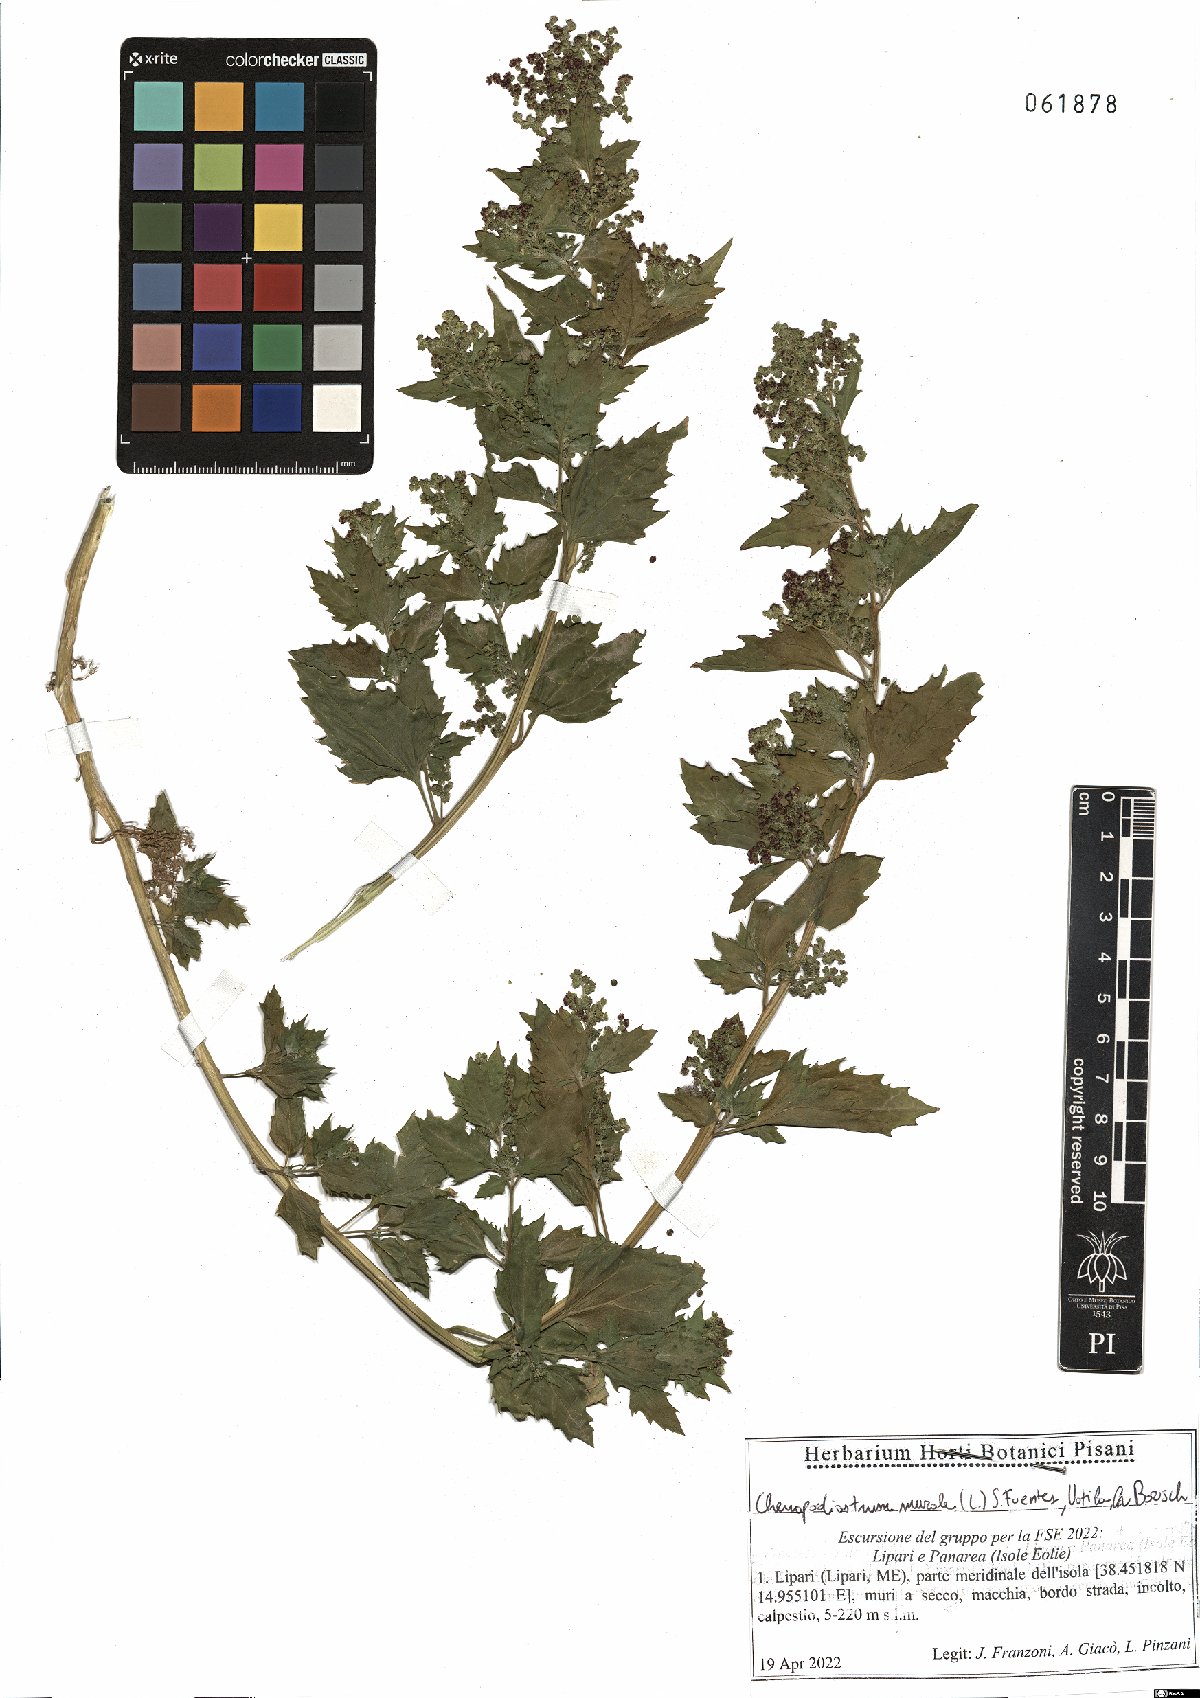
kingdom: Plantae
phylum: Tracheophyta
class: Magnoliopsida
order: Caryophyllales
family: Amaranthaceae
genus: Chenopodiastrum
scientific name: Chenopodiastrum murale
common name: Sowbane
